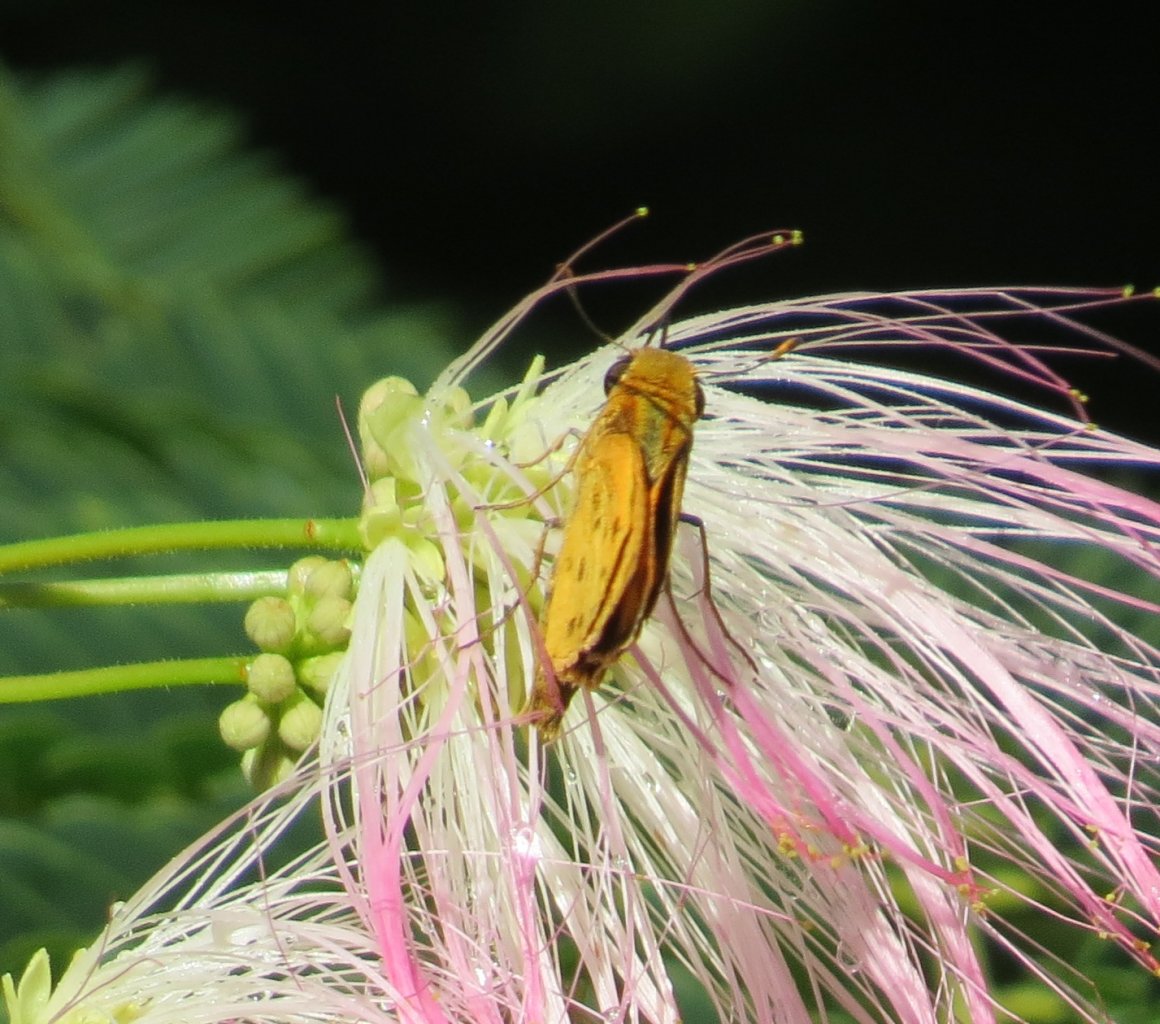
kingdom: Animalia
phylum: Arthropoda
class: Insecta
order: Lepidoptera
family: Hesperiidae
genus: Hylephila
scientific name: Hylephila phyleus
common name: Fiery Skipper
